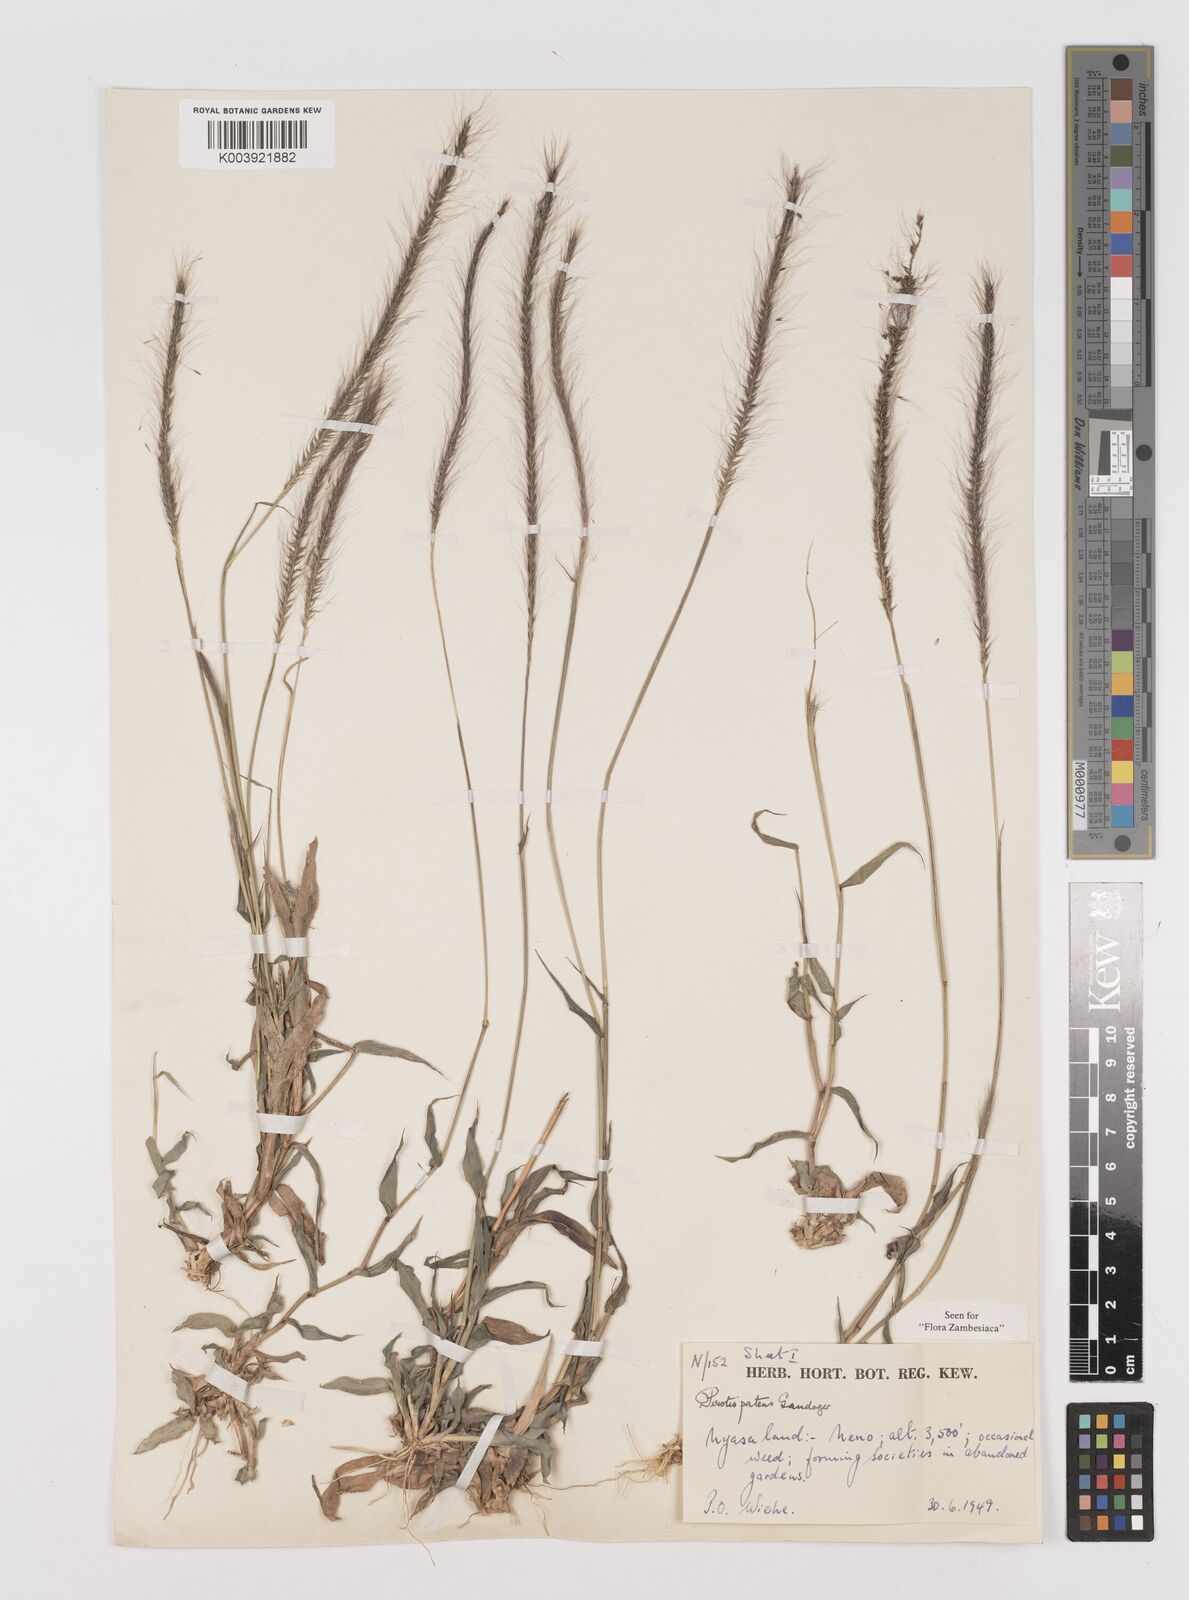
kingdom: Plantae
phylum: Tracheophyta
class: Liliopsida
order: Poales
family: Poaceae
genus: Perotis
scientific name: Perotis patens
